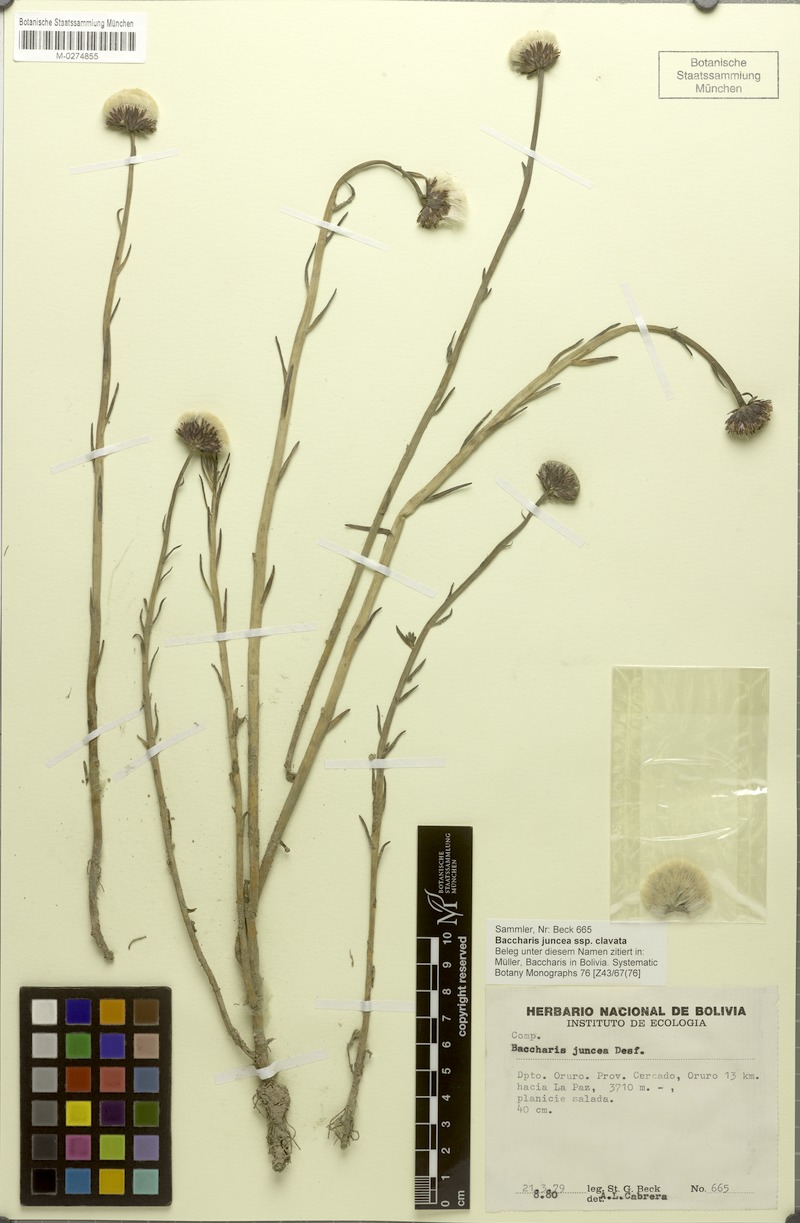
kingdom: Plantae
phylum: Tracheophyta
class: Magnoliopsida
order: Asterales
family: Asteraceae
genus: Baccharis
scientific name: Baccharis clavata
